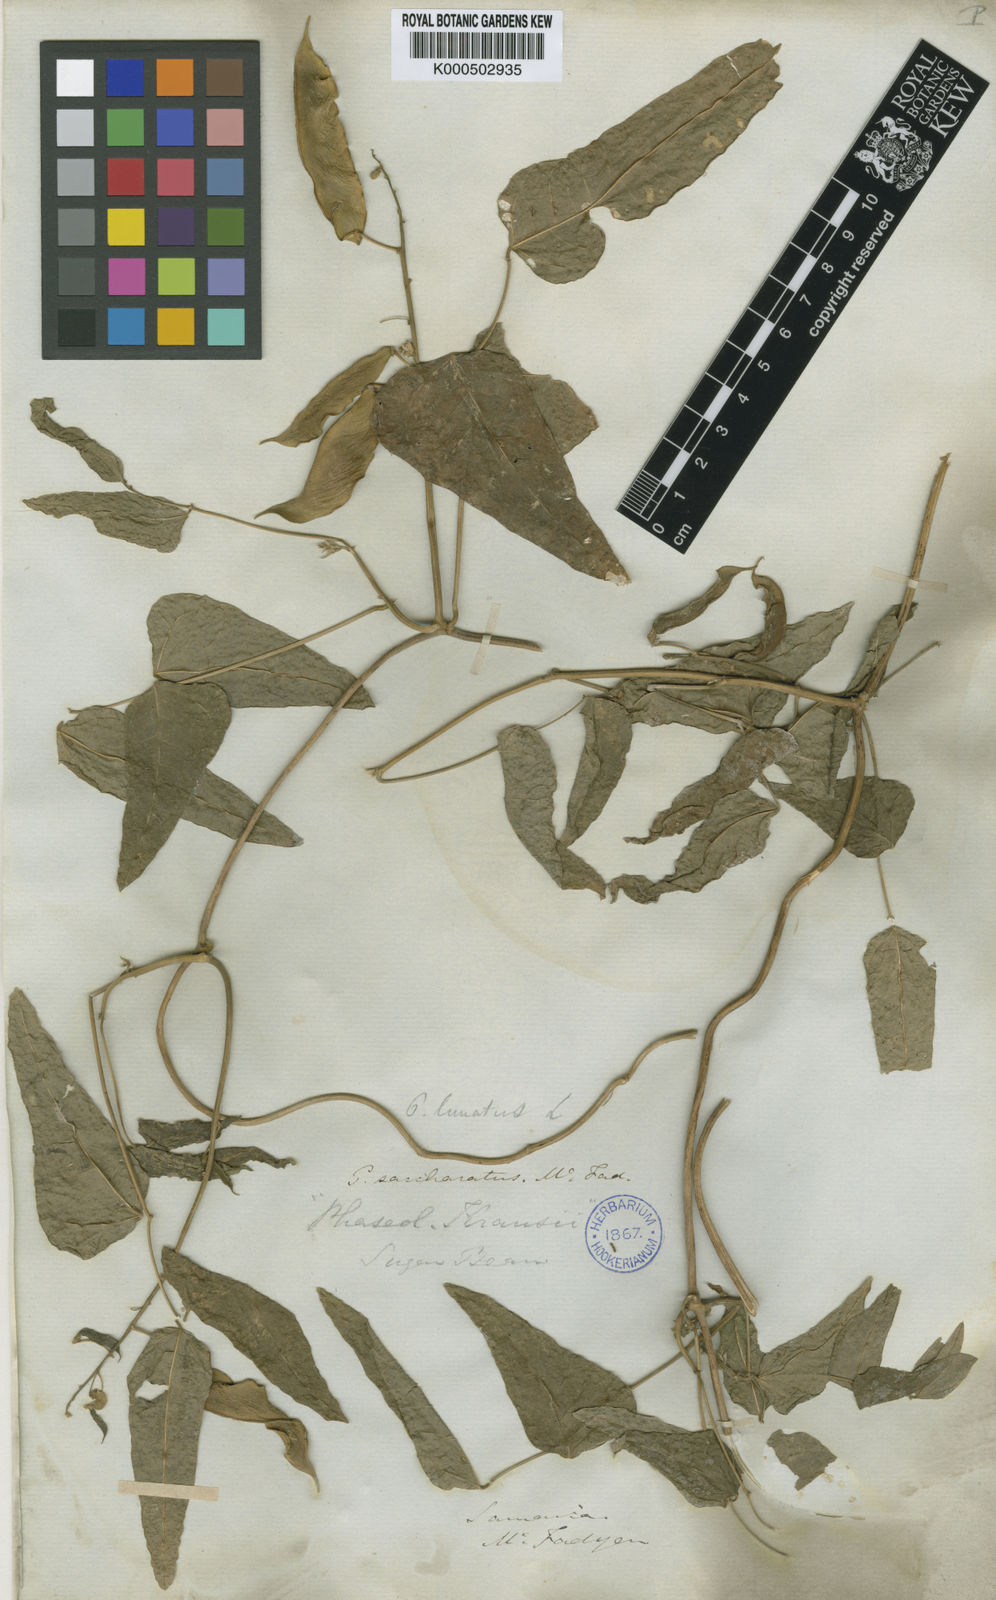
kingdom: Plantae
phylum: Tracheophyta
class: Magnoliopsida
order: Fabales
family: Fabaceae
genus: Phaseolus
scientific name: Phaseolus lunatus
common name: Sieva bean
